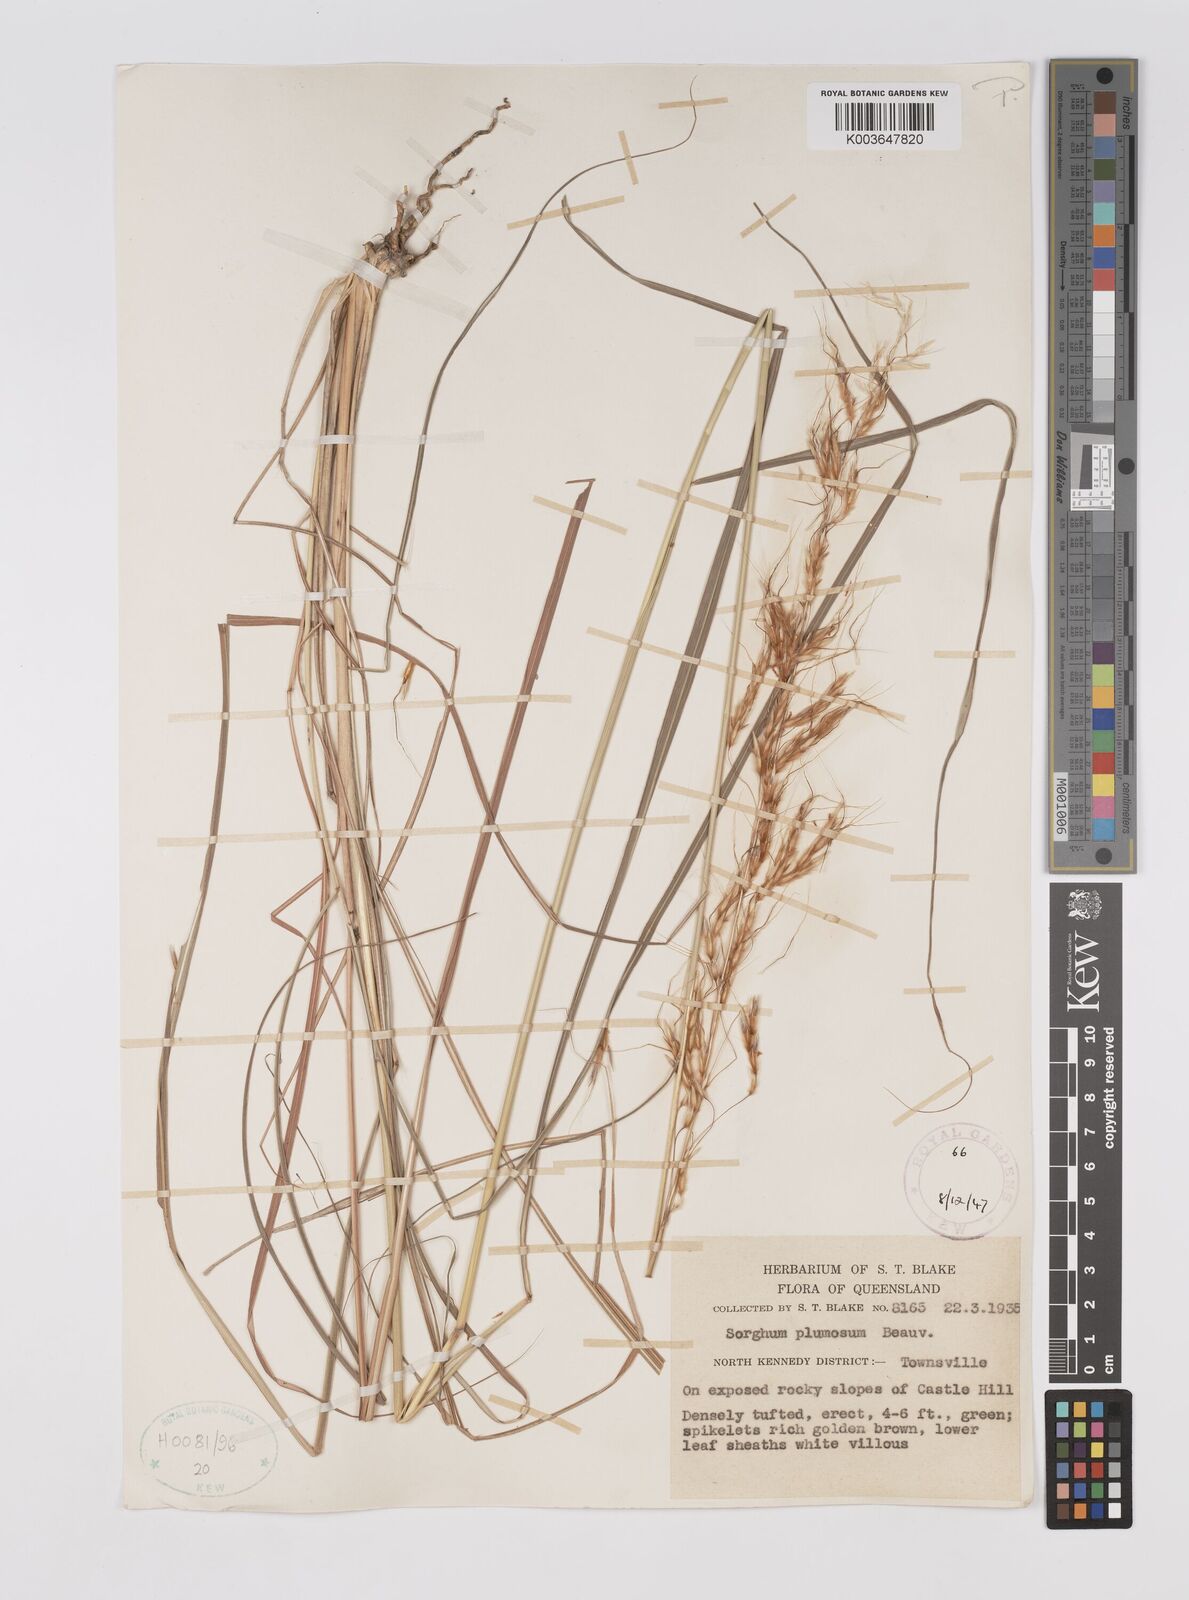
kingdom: Plantae
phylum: Tracheophyta
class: Liliopsida
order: Poales
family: Poaceae
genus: Sarga
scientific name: Sarga plumosa
